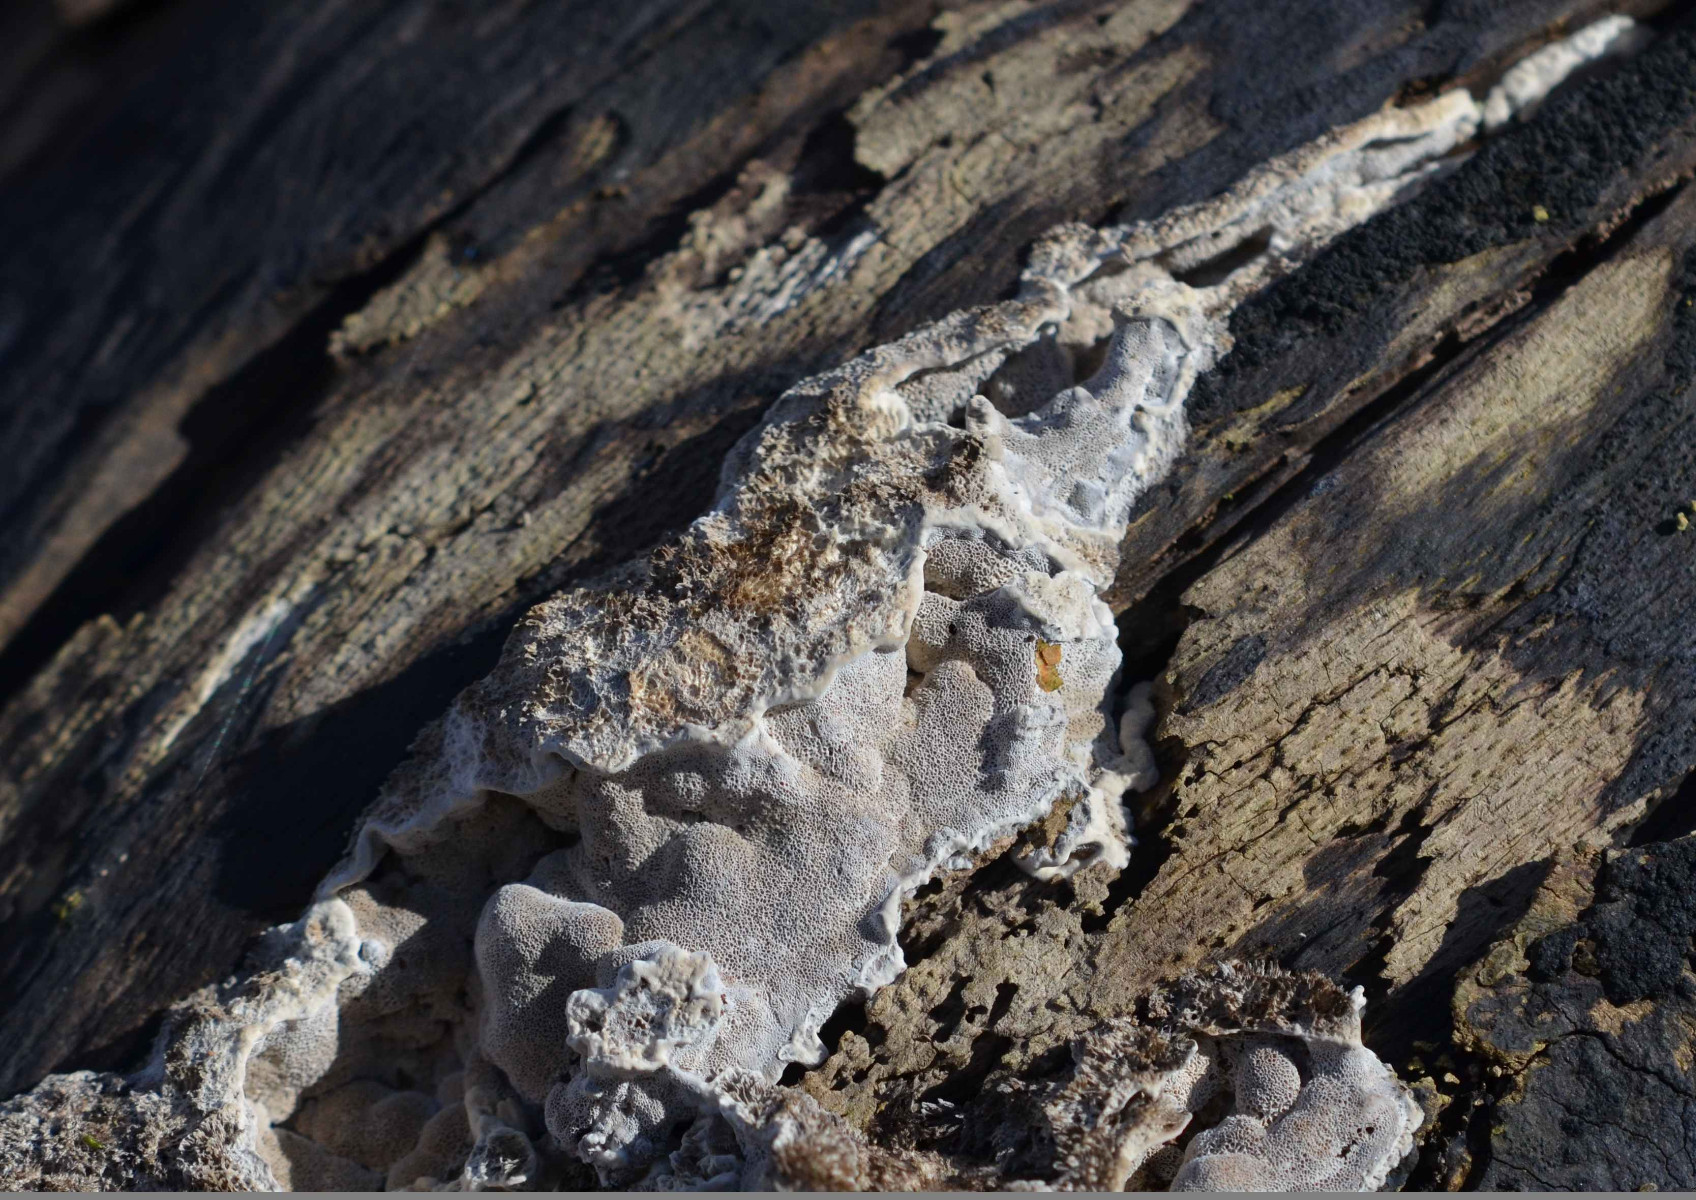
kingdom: Fungi
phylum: Basidiomycota
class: Agaricomycetes
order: Polyporales
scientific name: Polyporales
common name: poresvampordenen
